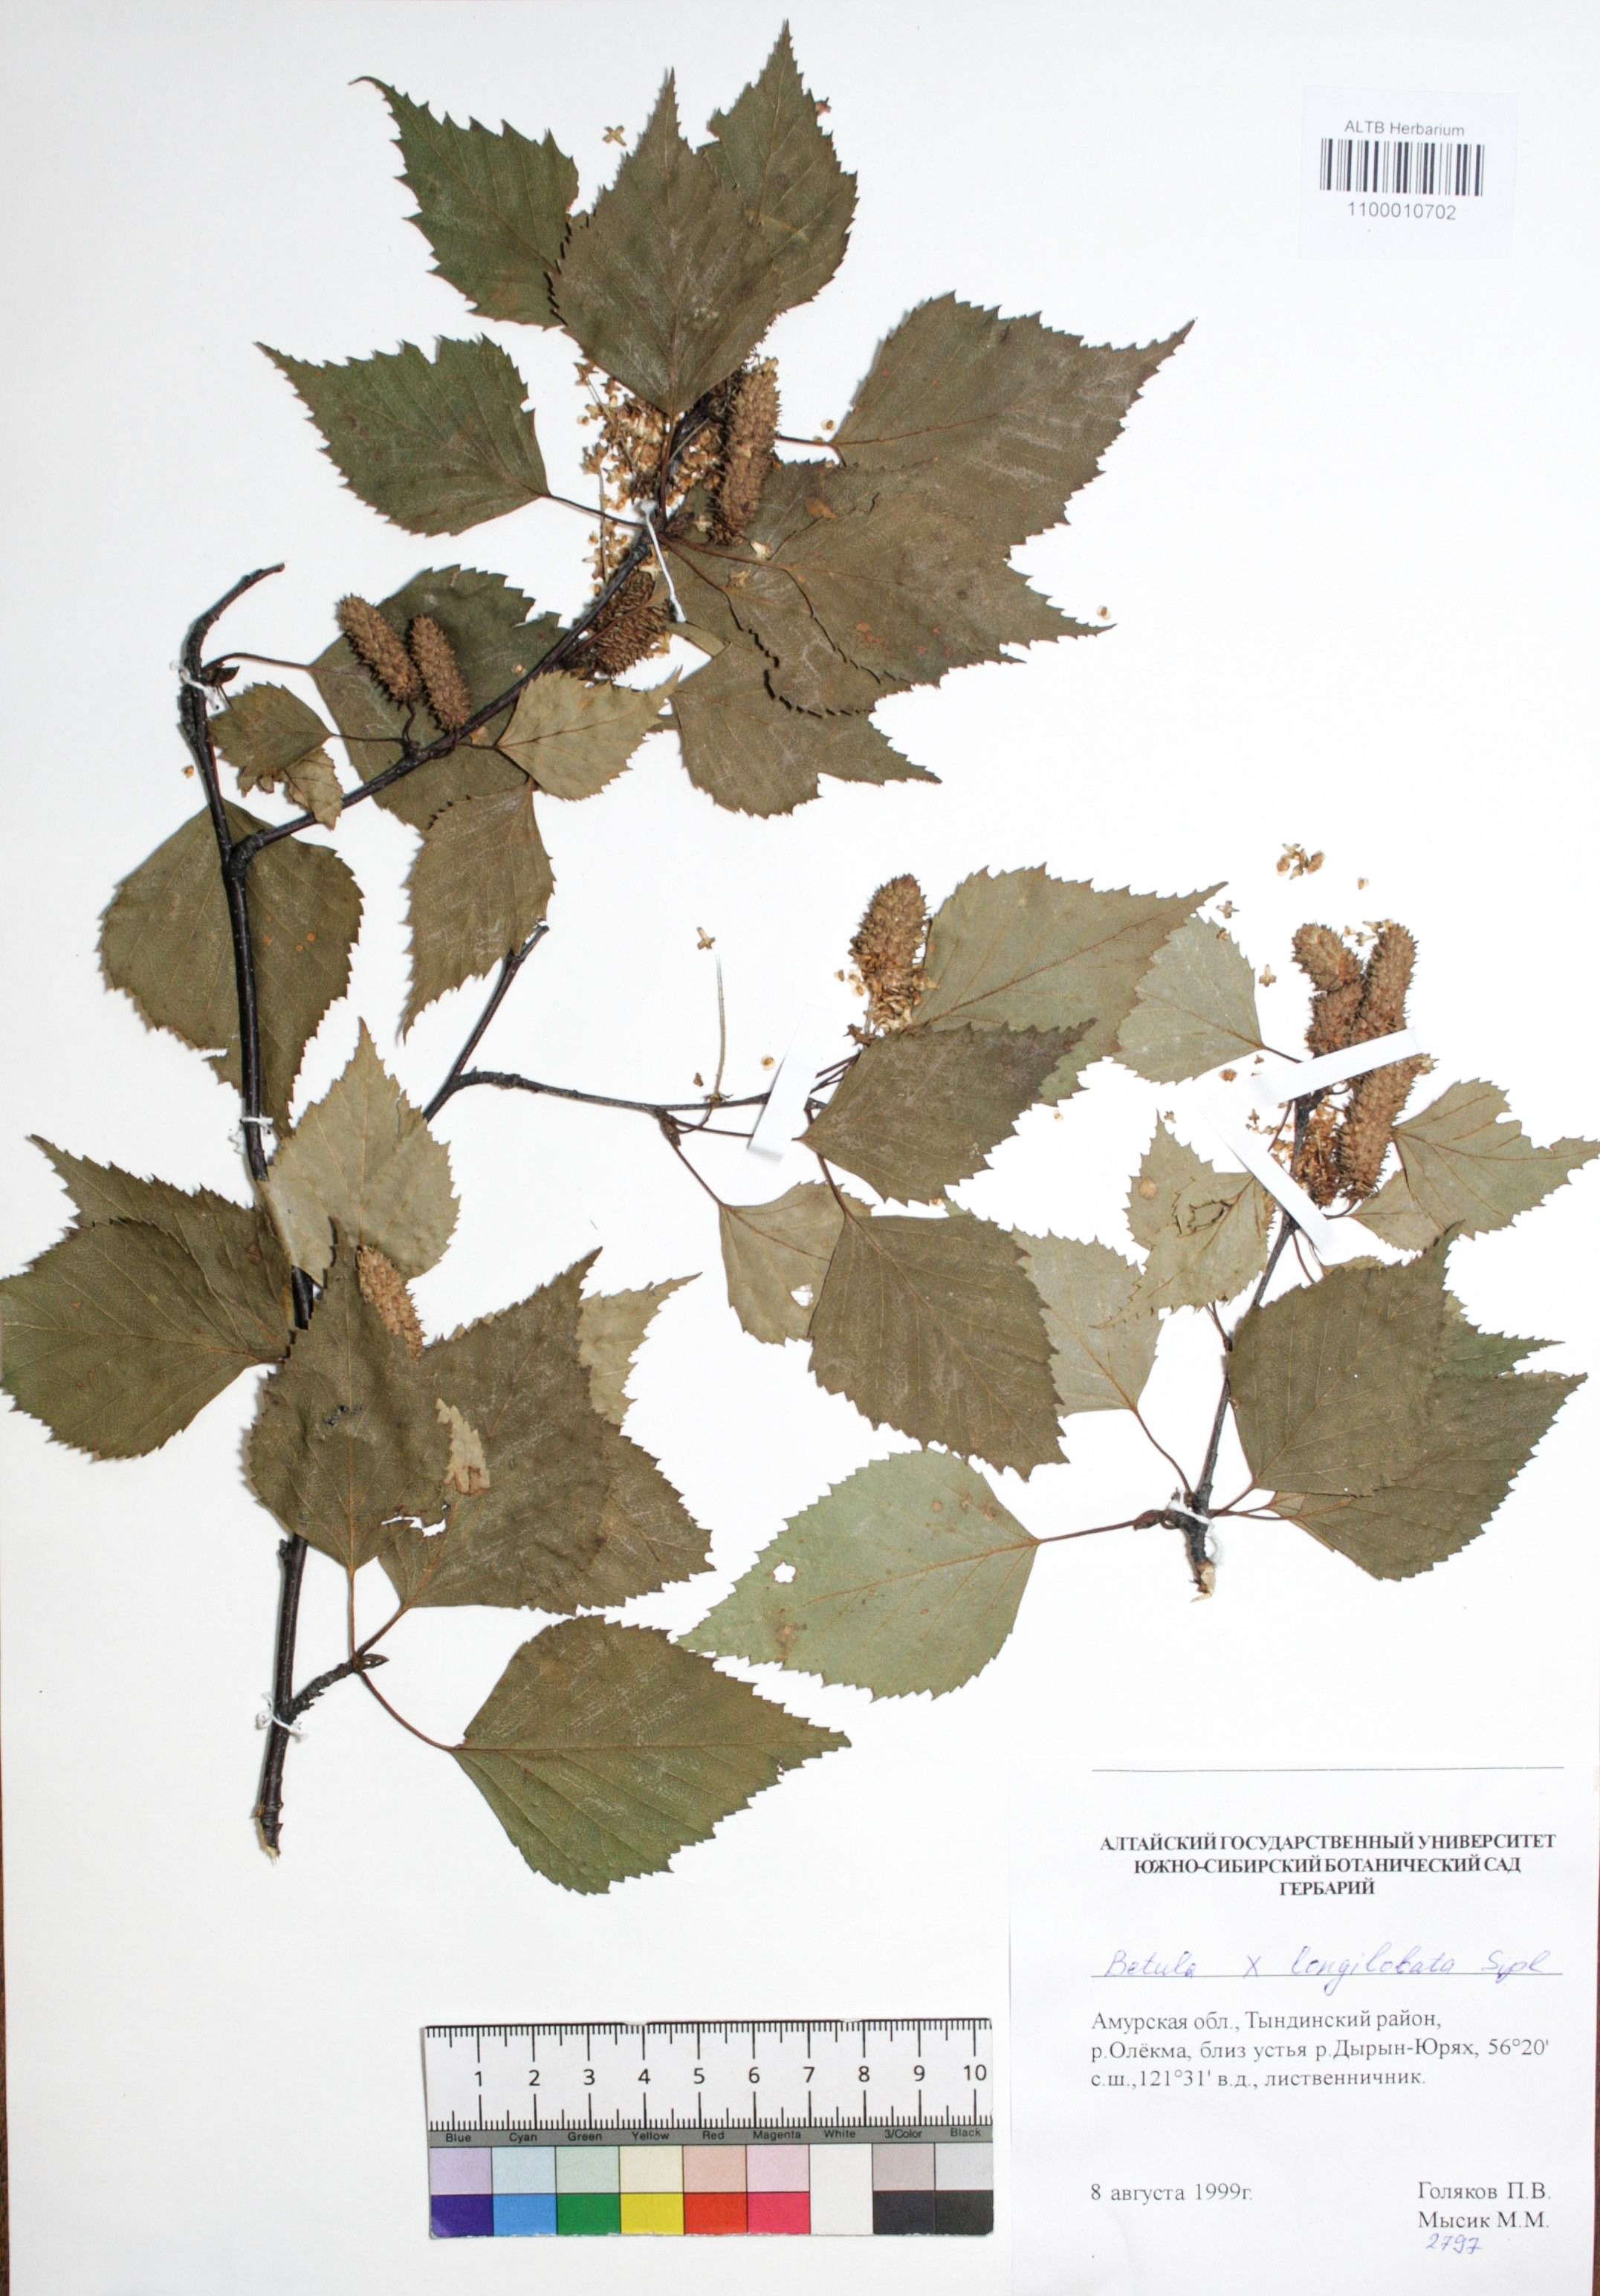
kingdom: Plantae
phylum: Tracheophyta
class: Magnoliopsida
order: Fagales
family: Betulaceae
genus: Betula
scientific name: Betula ermanii
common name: Erman's birch
